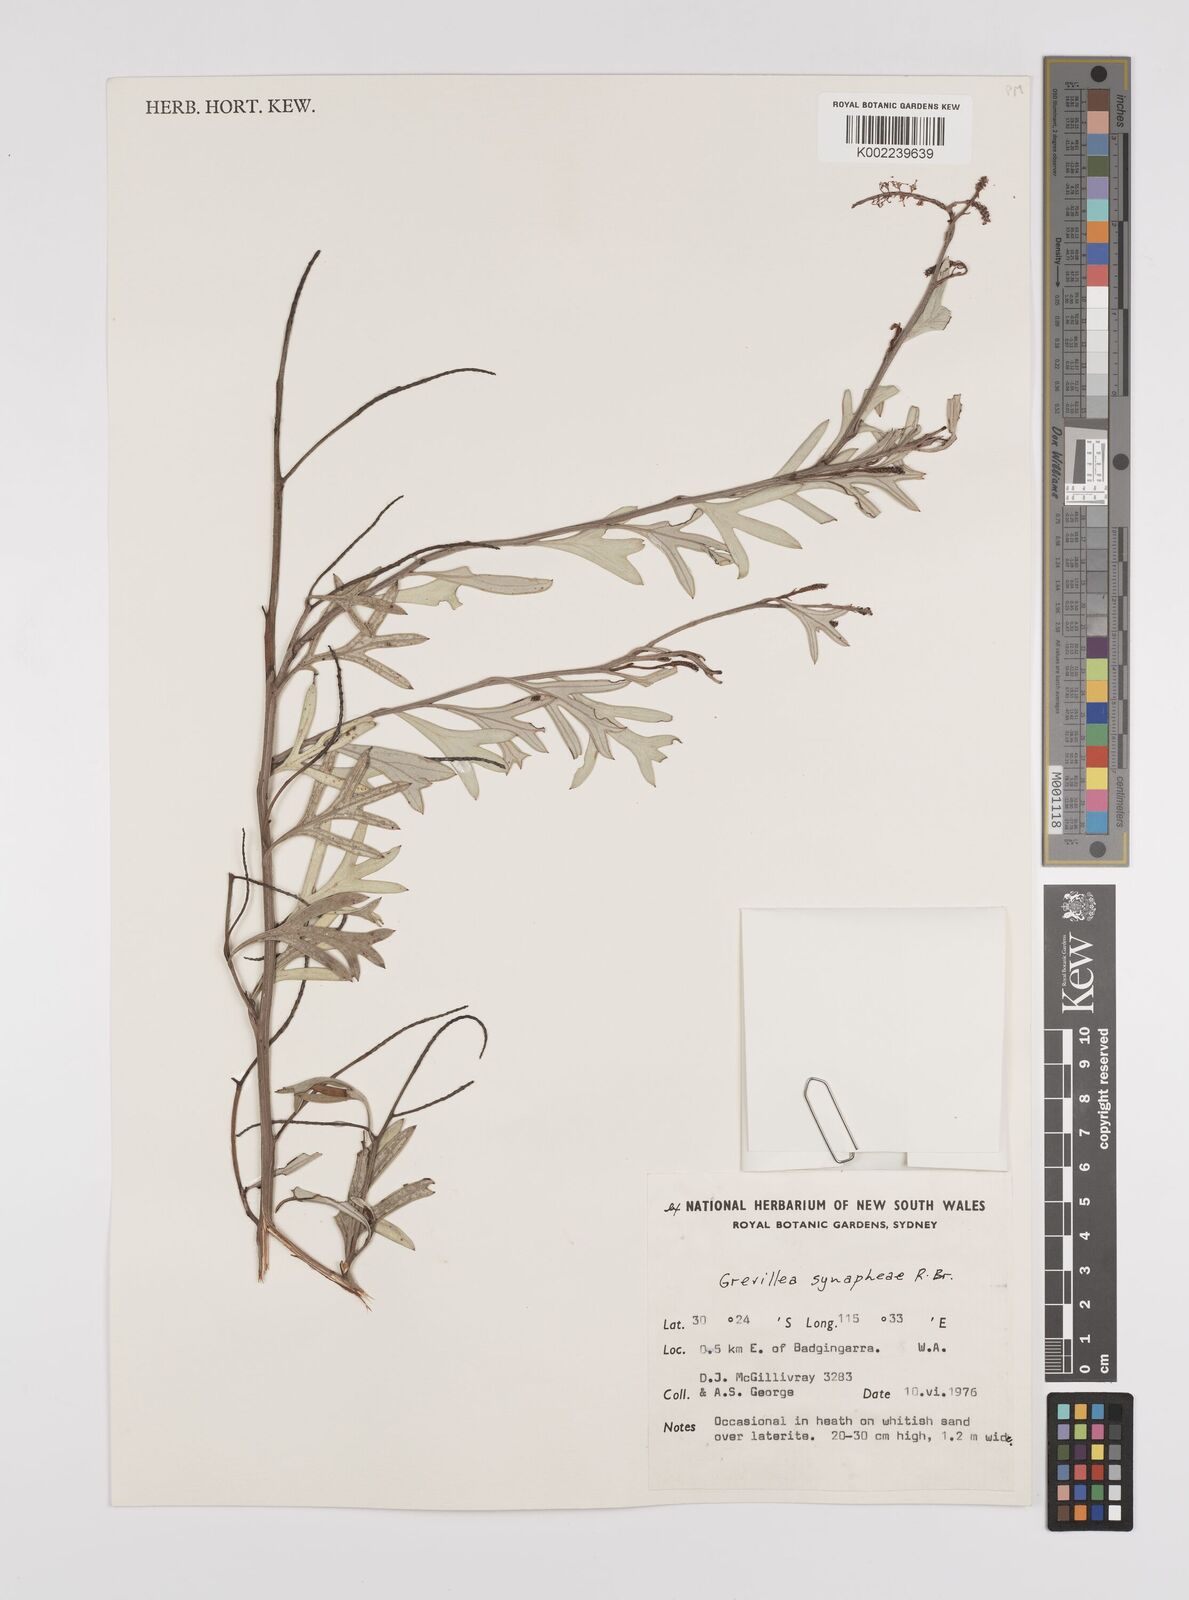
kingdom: Plantae
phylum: Tracheophyta
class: Magnoliopsida
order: Proteales
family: Proteaceae
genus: Grevillea
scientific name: Grevillea synaphea
